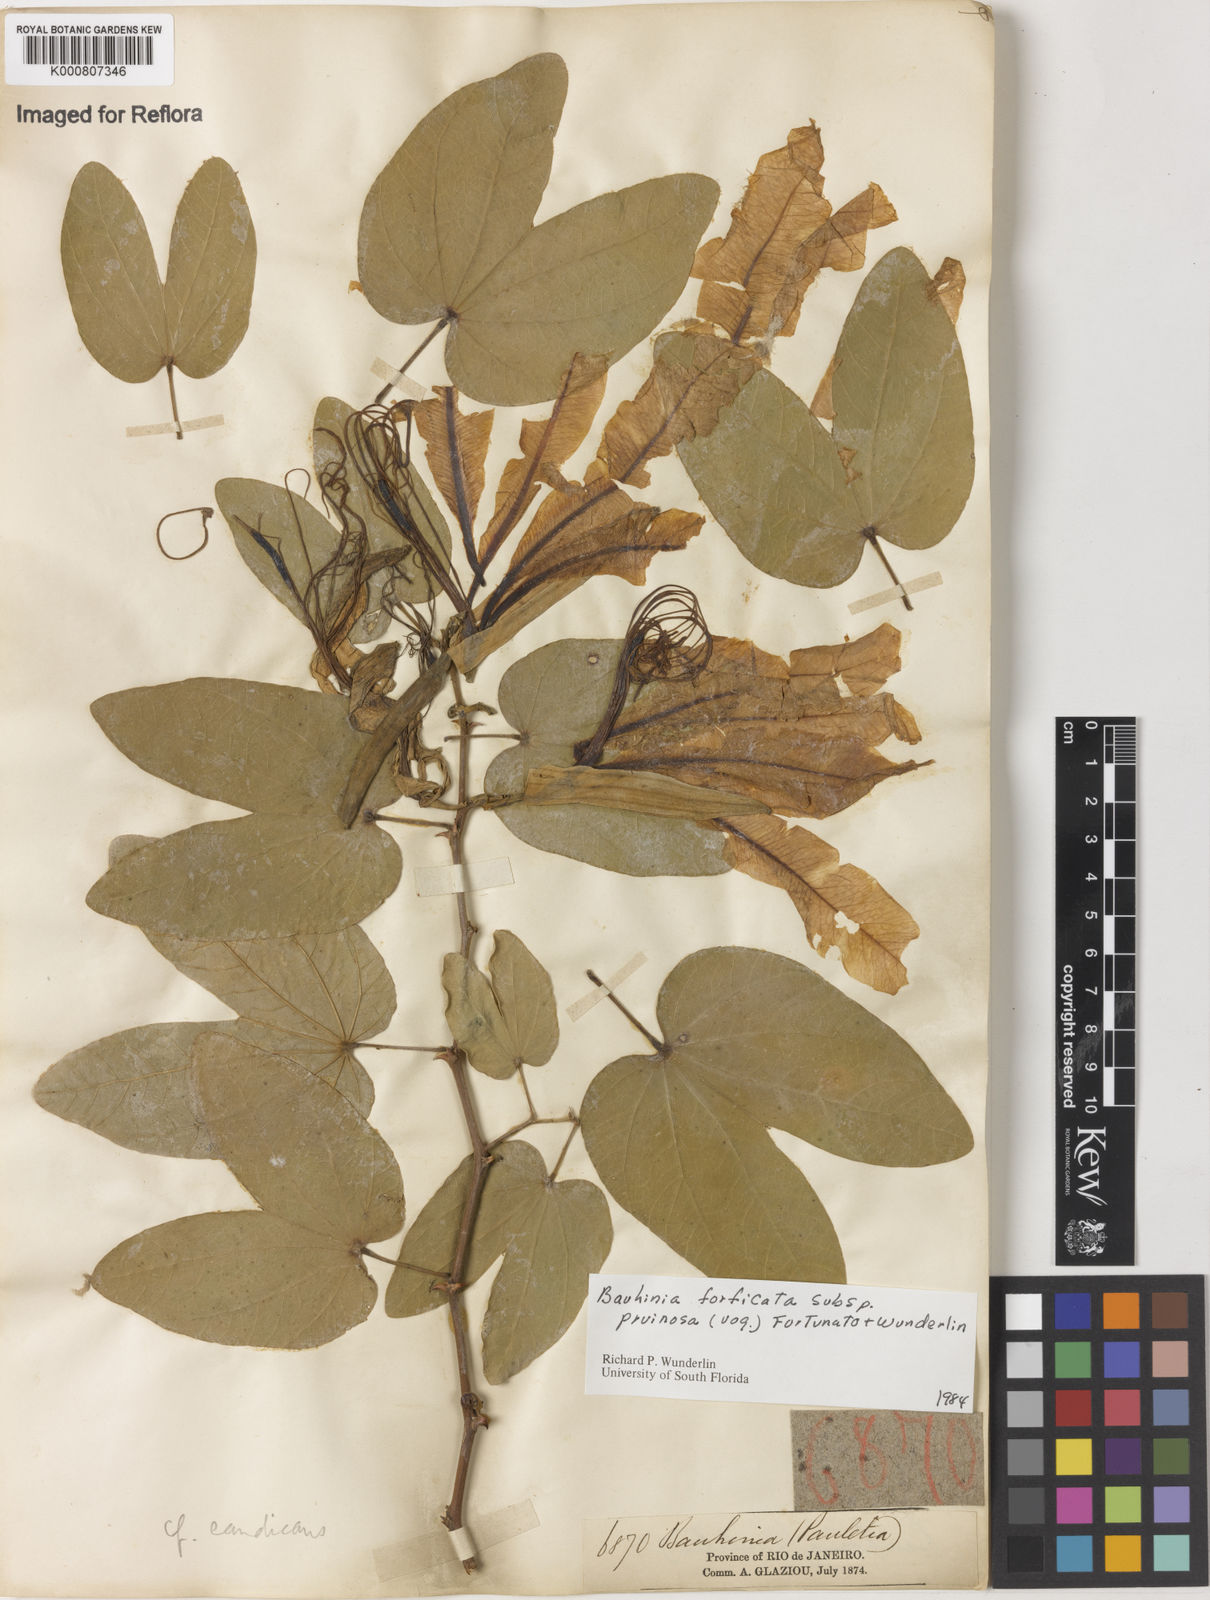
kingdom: Plantae
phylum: Tracheophyta
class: Magnoliopsida
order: Fabales
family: Fabaceae
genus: Bauhinia
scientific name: Bauhinia forficata
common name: Orchid tree
